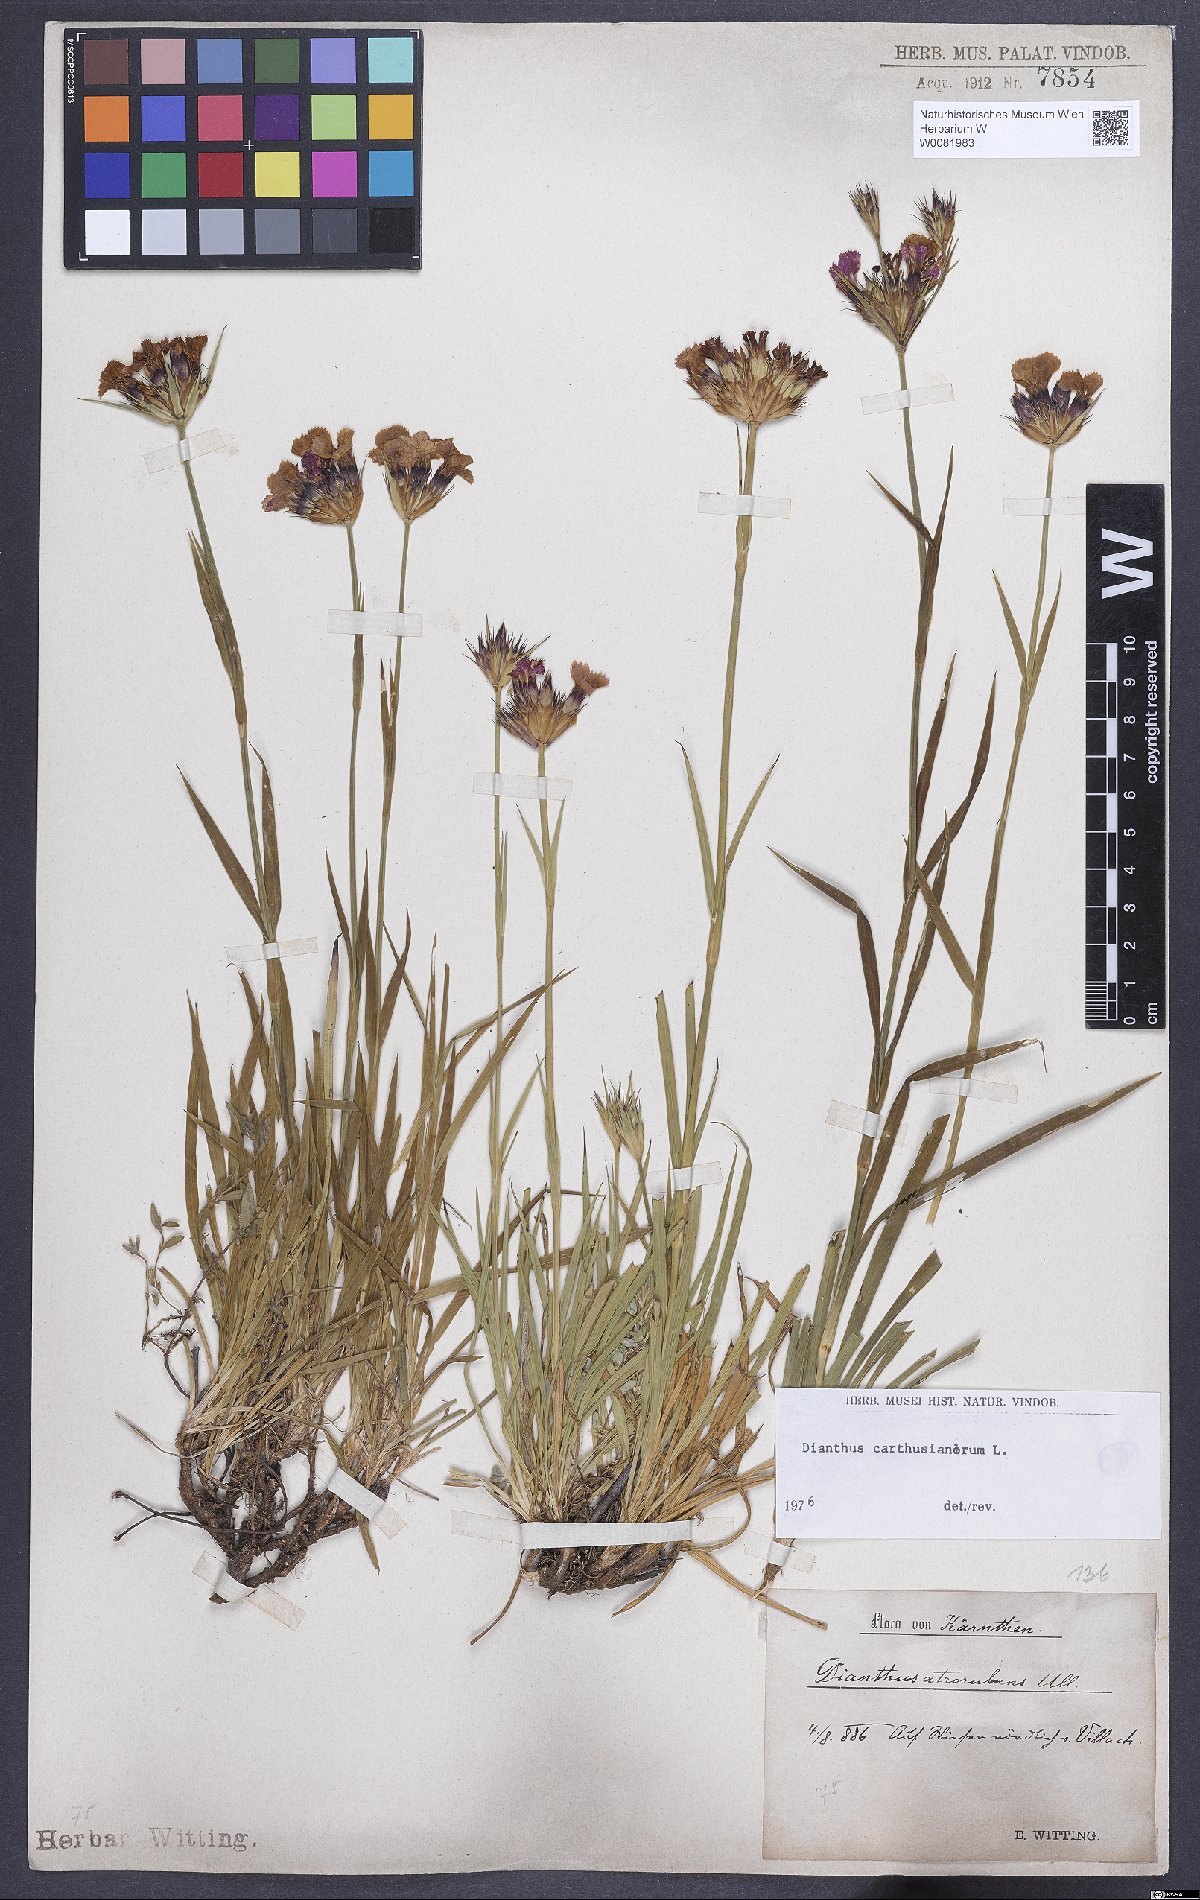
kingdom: Plantae
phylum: Tracheophyta
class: Magnoliopsida
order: Caryophyllales
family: Caryophyllaceae
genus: Dianthus
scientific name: Dianthus carthusianorum
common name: Carthusian pink
